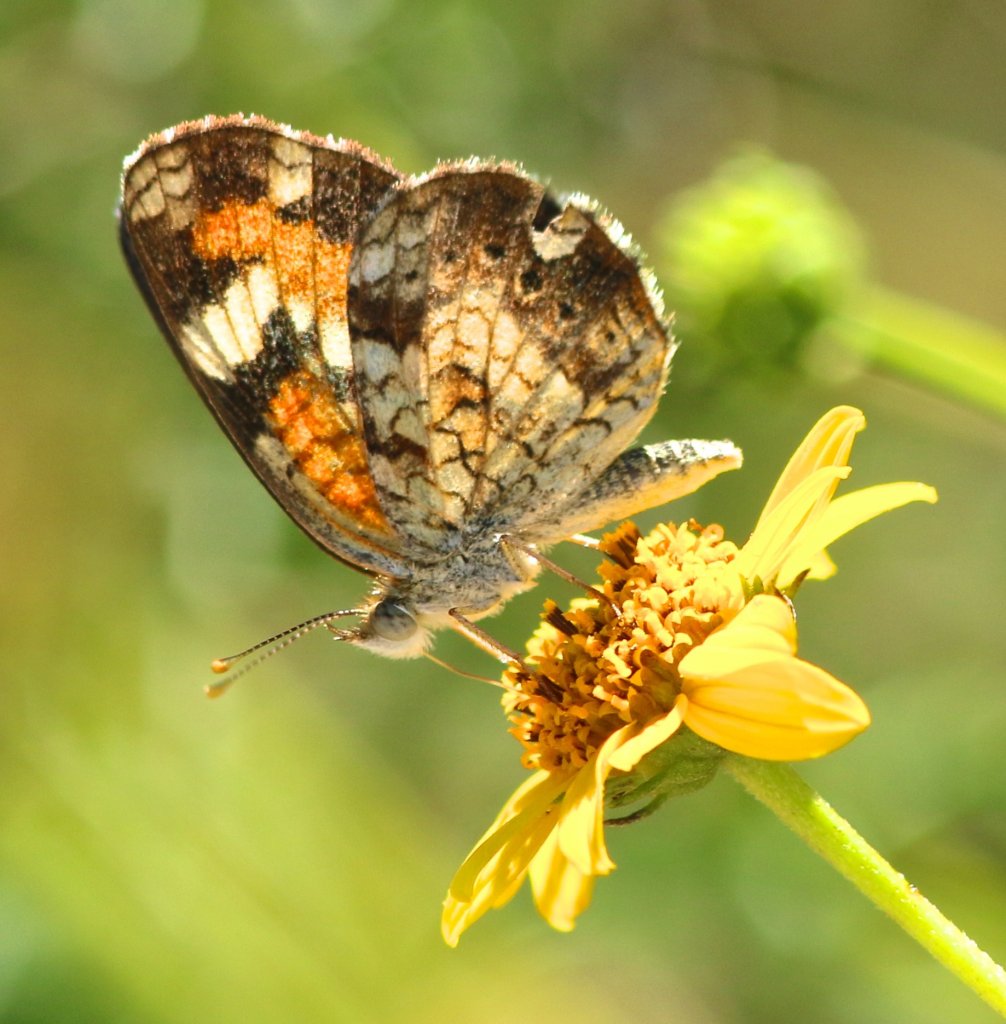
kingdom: Animalia
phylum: Arthropoda
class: Insecta
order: Lepidoptera
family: Nymphalidae
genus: Phyciodes
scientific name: Phyciodes phaon
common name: Phaon Crescent
